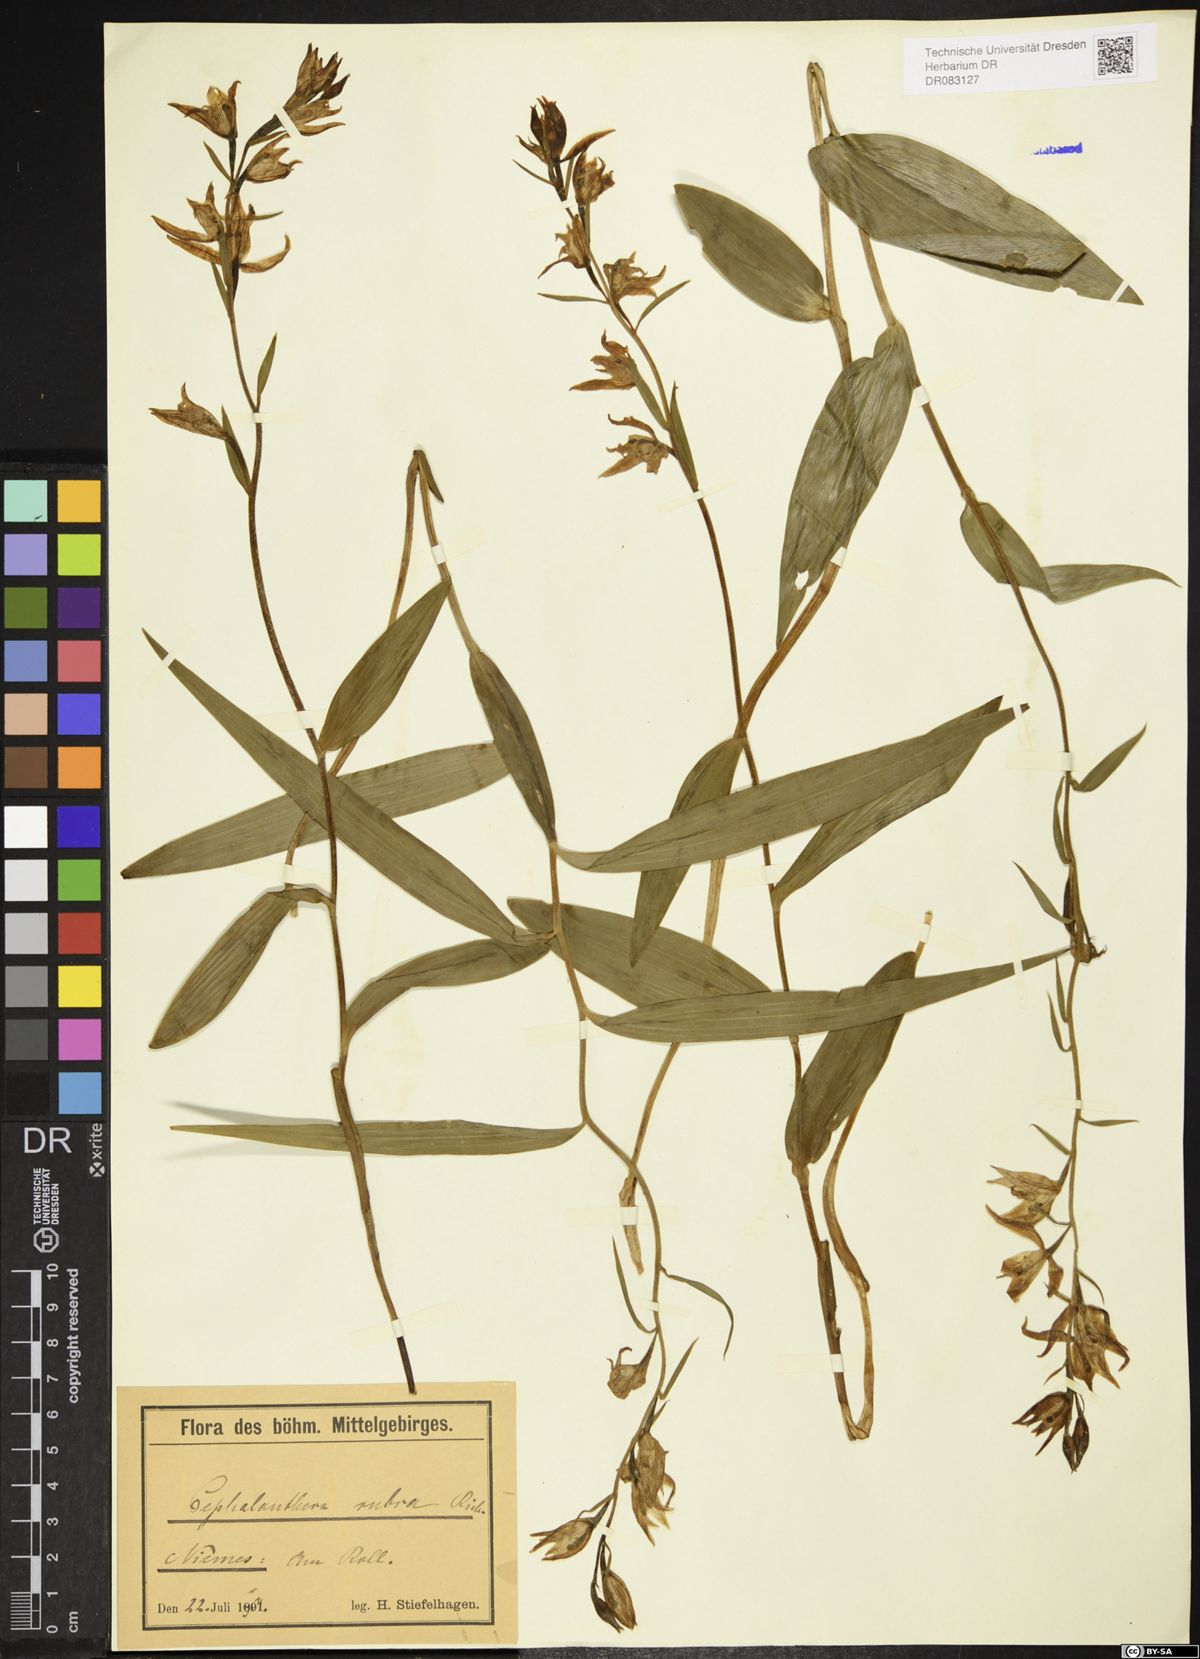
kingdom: Plantae
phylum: Tracheophyta
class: Liliopsida
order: Asparagales
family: Orchidaceae
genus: Cephalanthera
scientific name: Cephalanthera rubra
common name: Red helleborine
